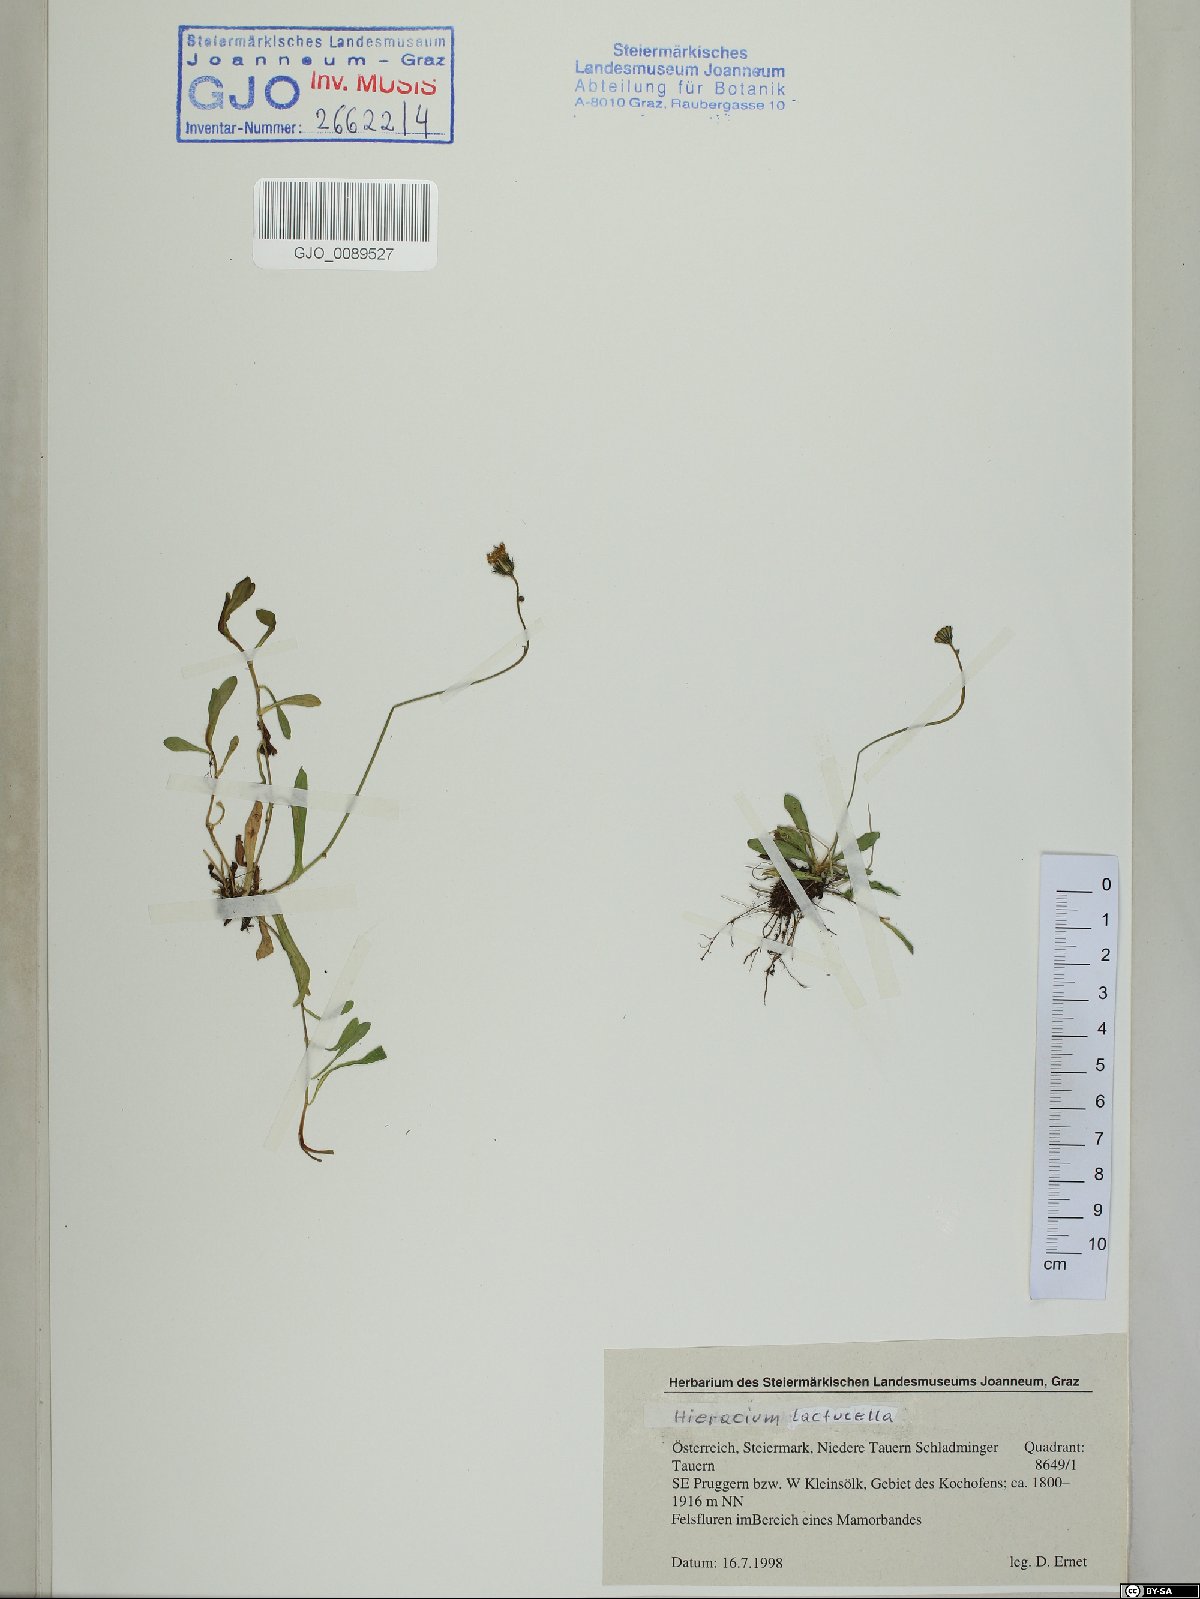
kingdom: Plantae
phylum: Tracheophyta
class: Magnoliopsida
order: Asterales
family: Asteraceae
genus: Pilosella
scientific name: Pilosella lactucella
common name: Glaucous fox-and-cubs
